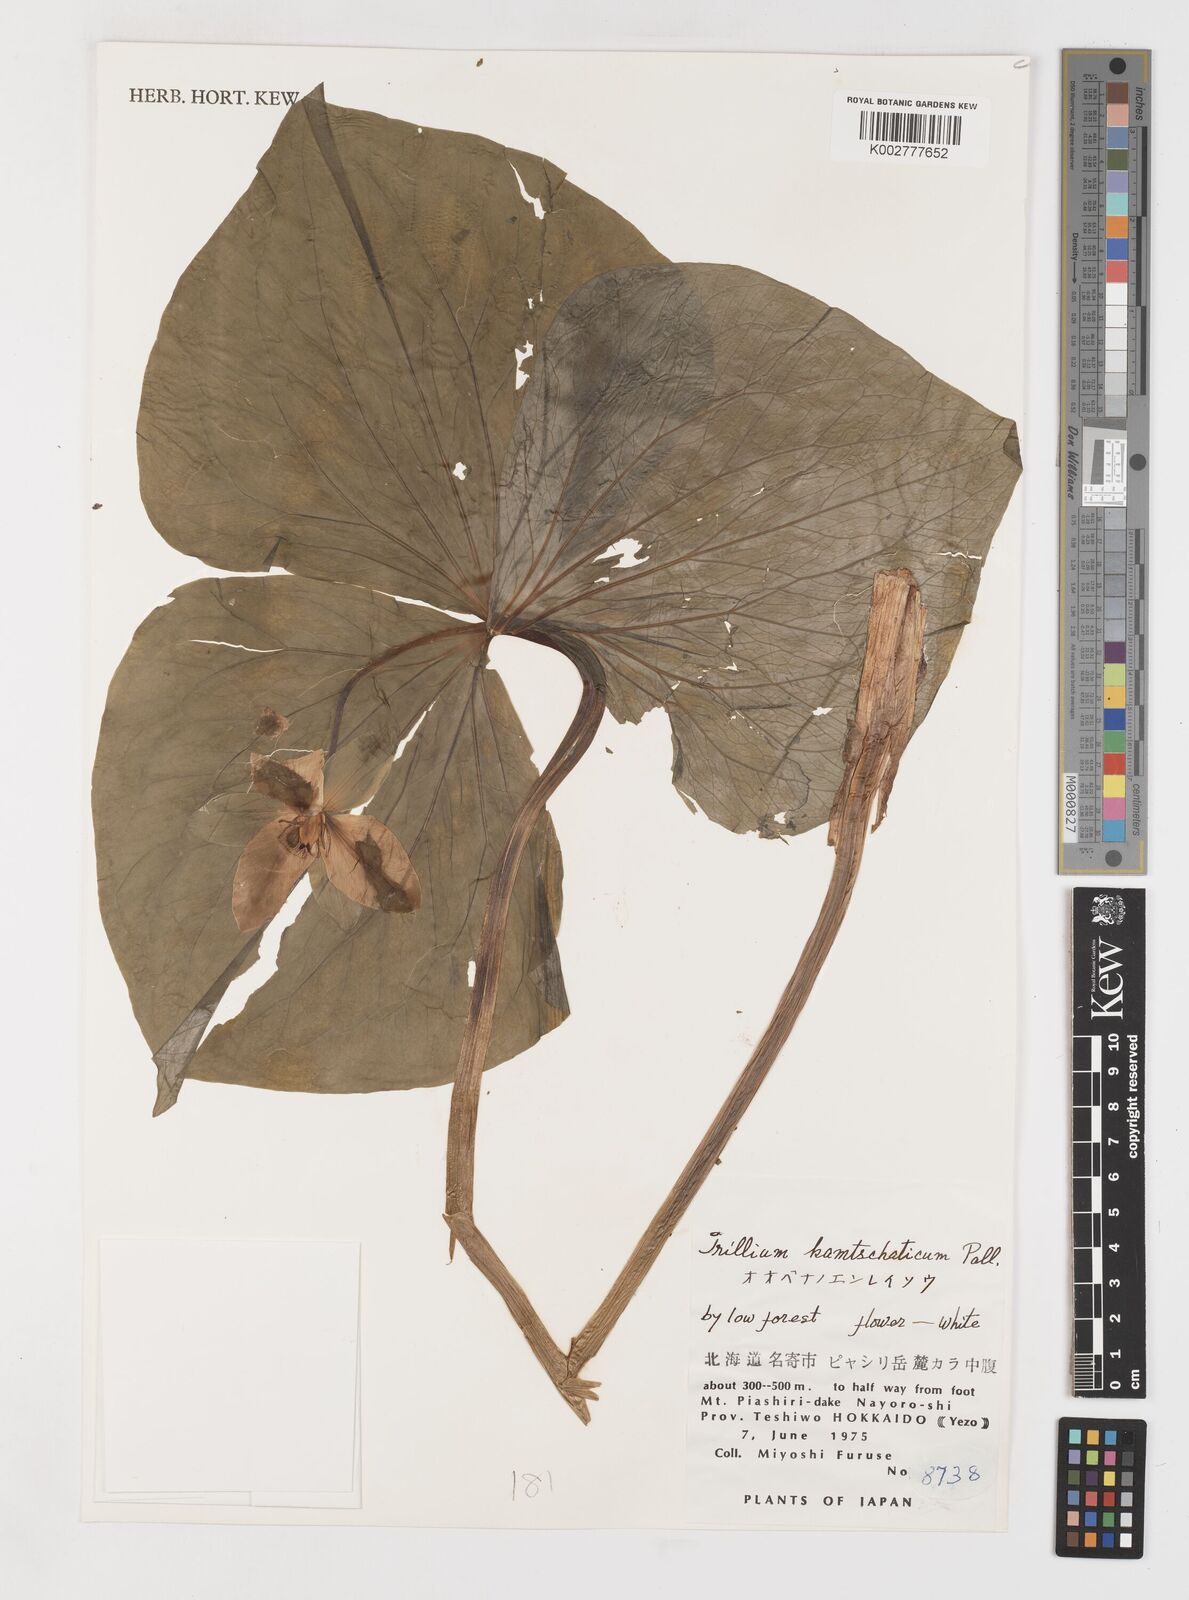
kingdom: Plantae
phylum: Tracheophyta
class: Liliopsida
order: Liliales
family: Melanthiaceae
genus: Trillium
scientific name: Trillium camschatcense
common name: Kamchatka trillium
